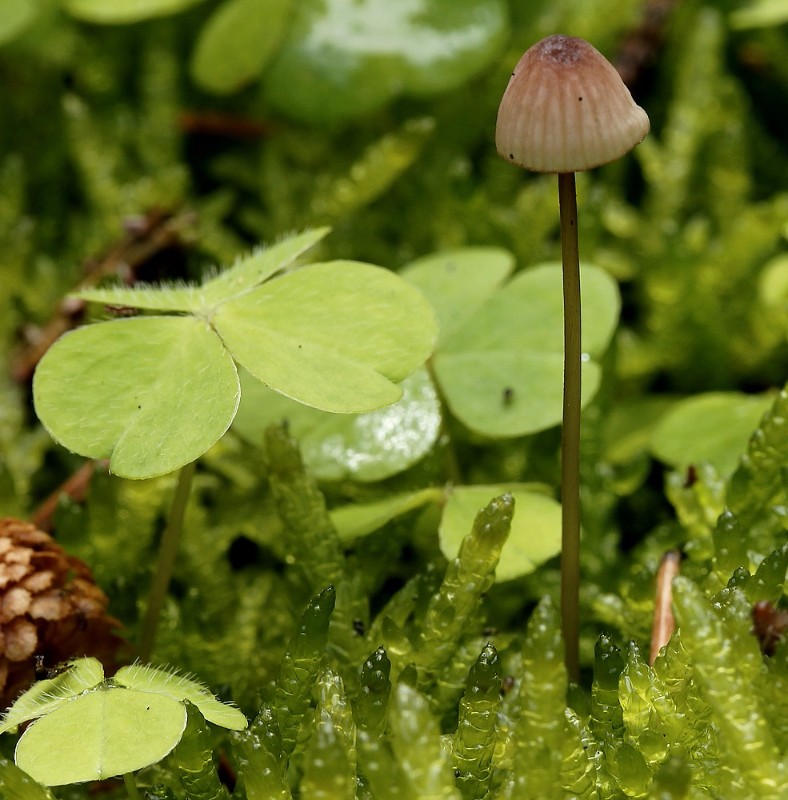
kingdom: Fungi
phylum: Basidiomycota
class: Agaricomycetes
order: Agaricales
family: Mycenaceae
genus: Mycena
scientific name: Mycena sanguinolenta
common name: rødmælket huesvamp
